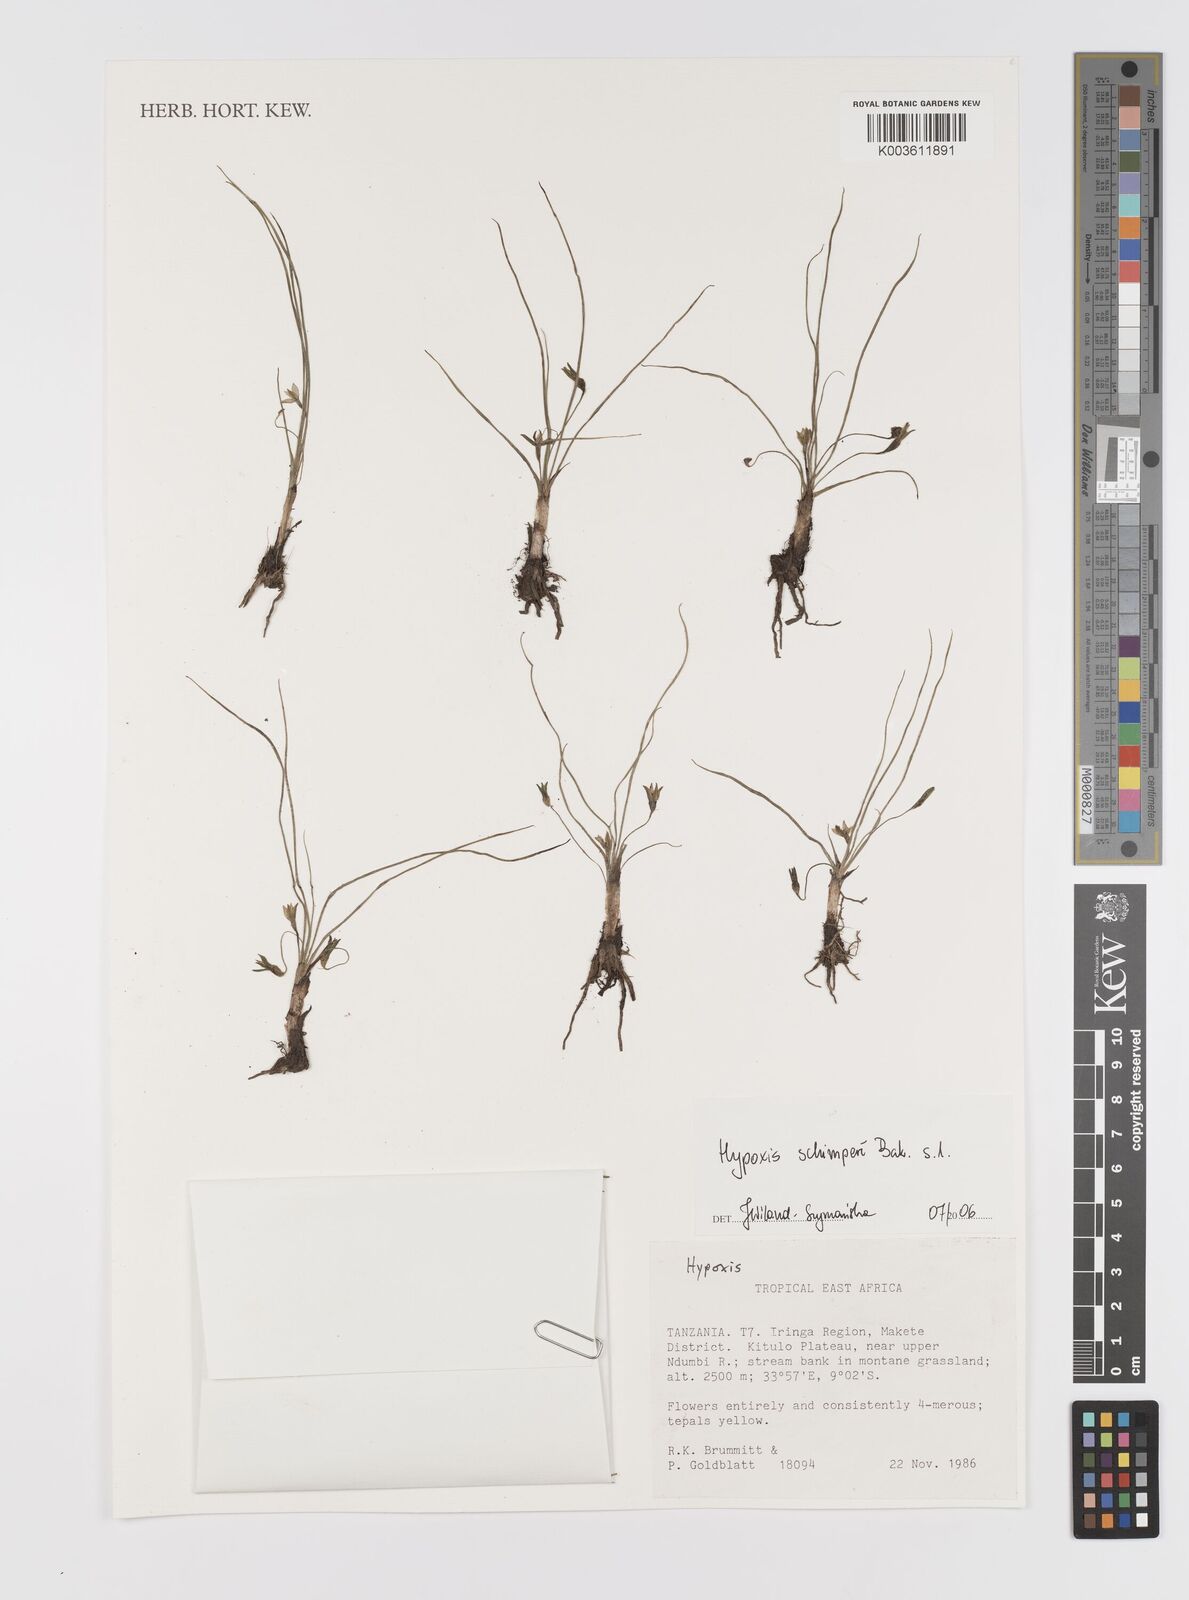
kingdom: Plantae
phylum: Tracheophyta
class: Liliopsida
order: Asparagales
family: Hypoxidaceae
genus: Hypoxis
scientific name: Hypoxis schimperi
